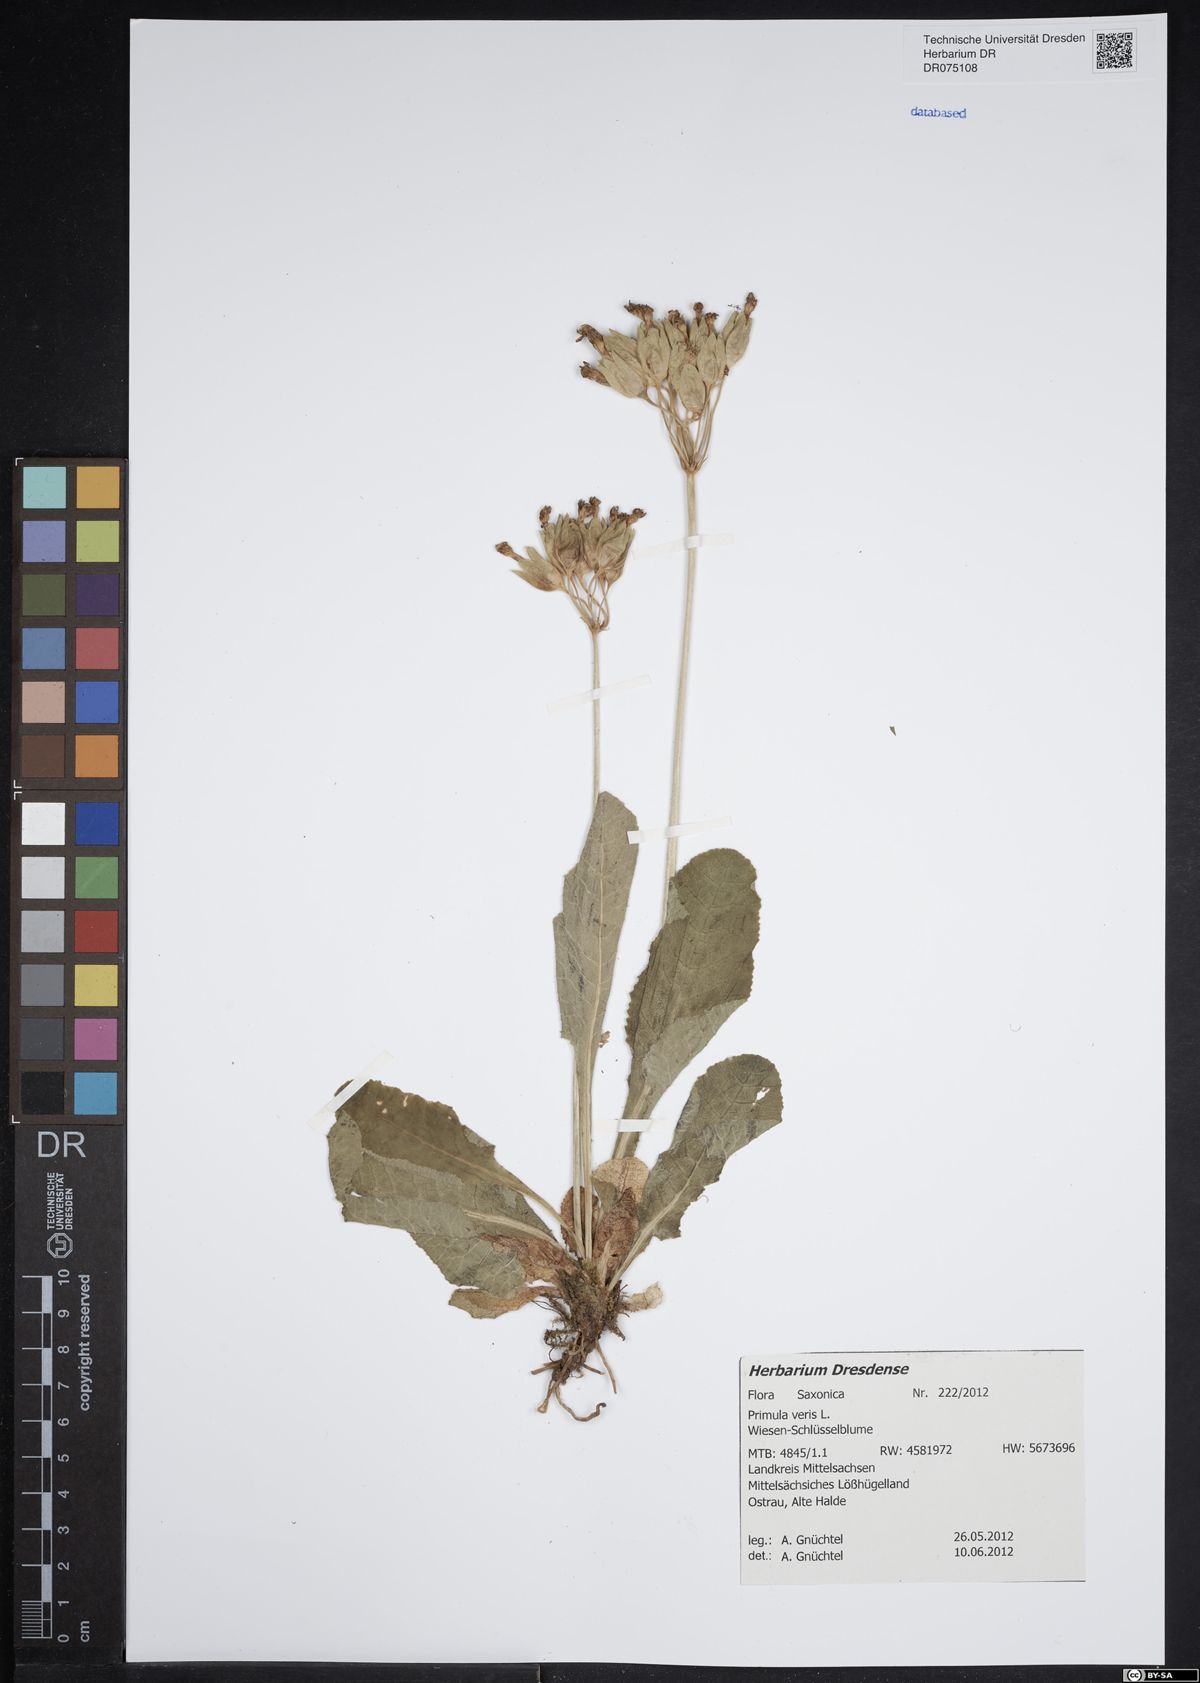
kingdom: Plantae
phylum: Tracheophyta
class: Magnoliopsida
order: Ericales
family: Primulaceae
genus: Primula
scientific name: Primula veris
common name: Cowslip
